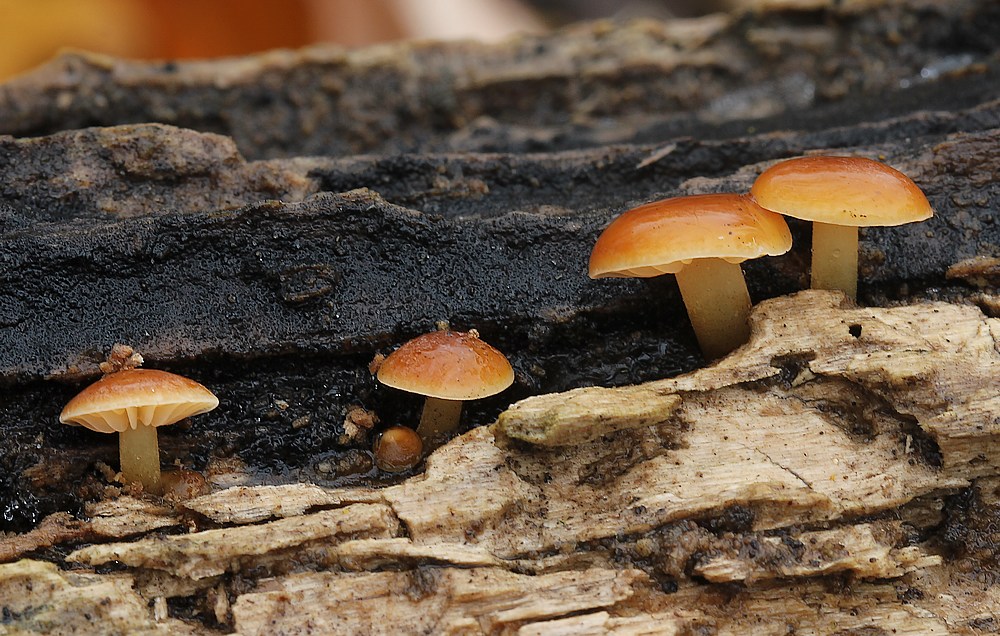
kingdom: Fungi
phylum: Basidiomycota
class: Agaricomycetes
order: Agaricales
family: Physalacriaceae
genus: Flammulina
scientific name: Flammulina
